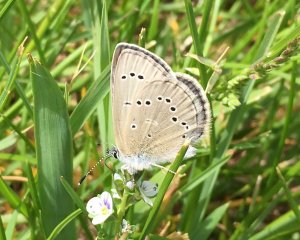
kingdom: Animalia
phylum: Arthropoda
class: Insecta
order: Lepidoptera
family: Lycaenidae
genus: Glaucopsyche
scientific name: Glaucopsyche lygdamus
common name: Silvery Blue
